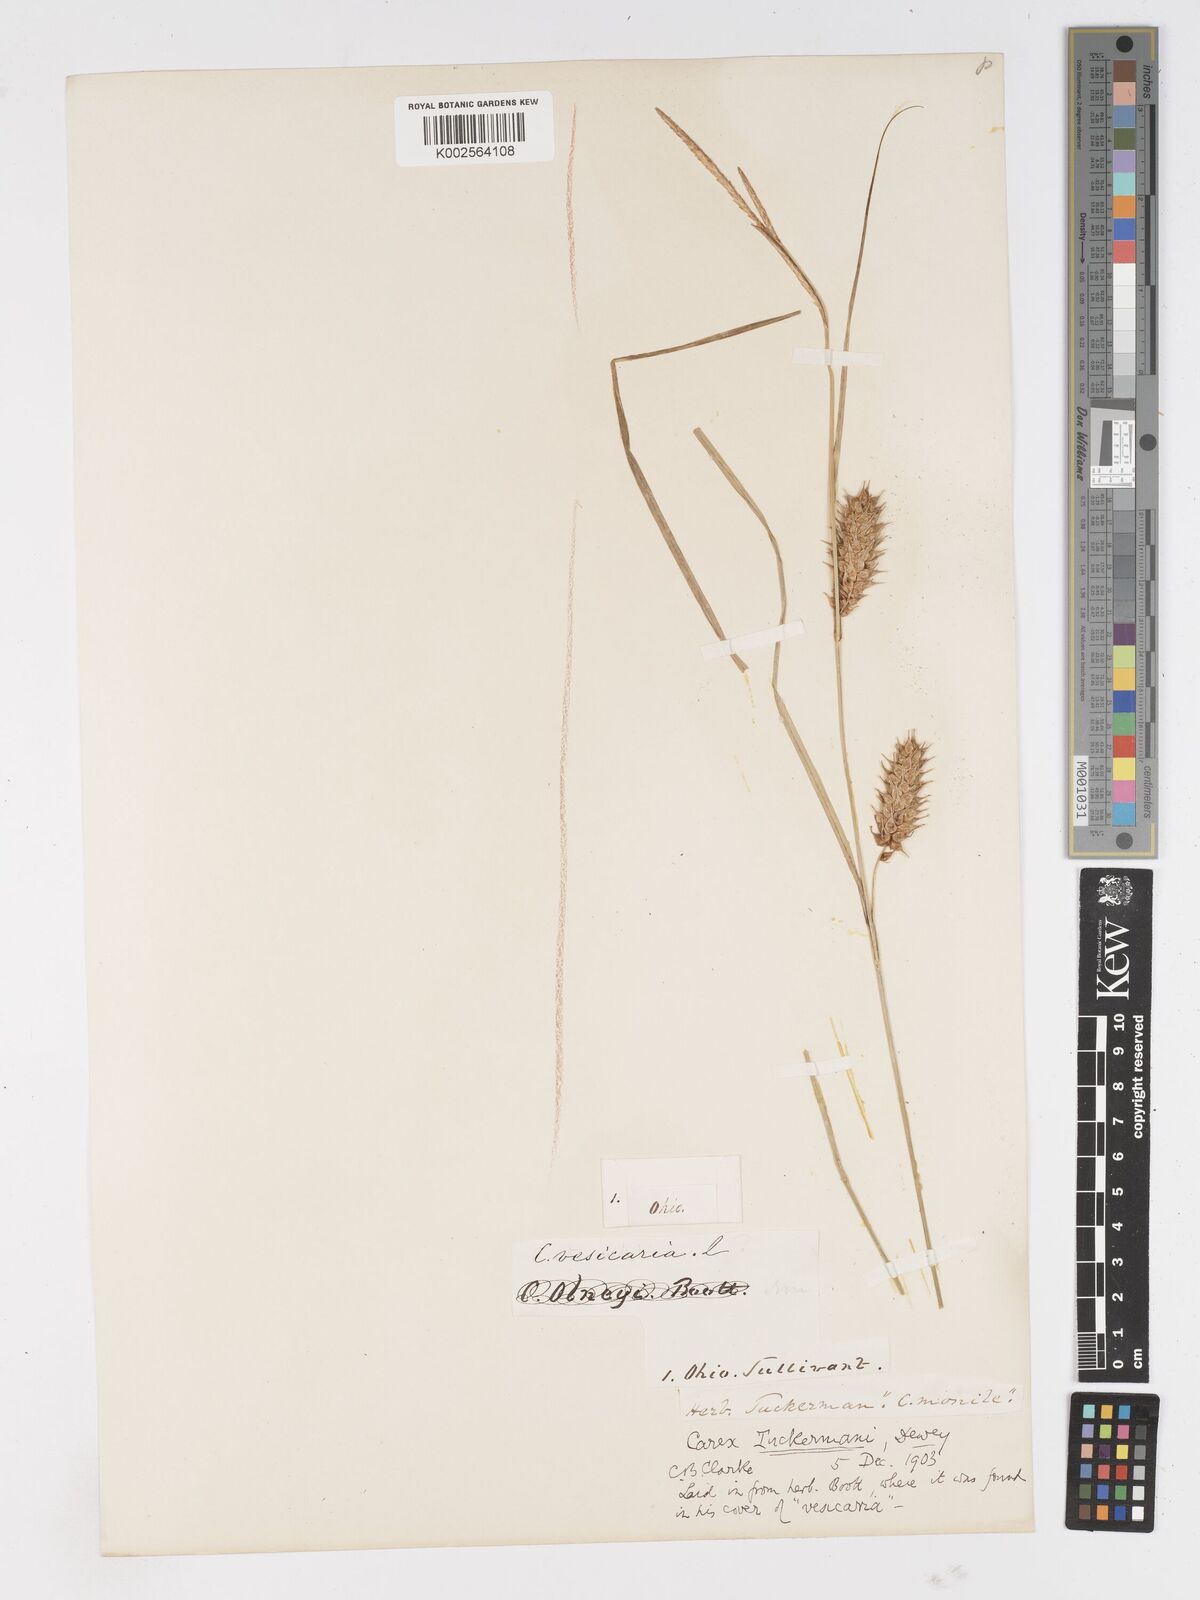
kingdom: Plantae
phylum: Tracheophyta
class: Liliopsida
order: Poales
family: Cyperaceae
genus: Carex
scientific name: Carex tuckermanii
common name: Tuckerman's sedge
